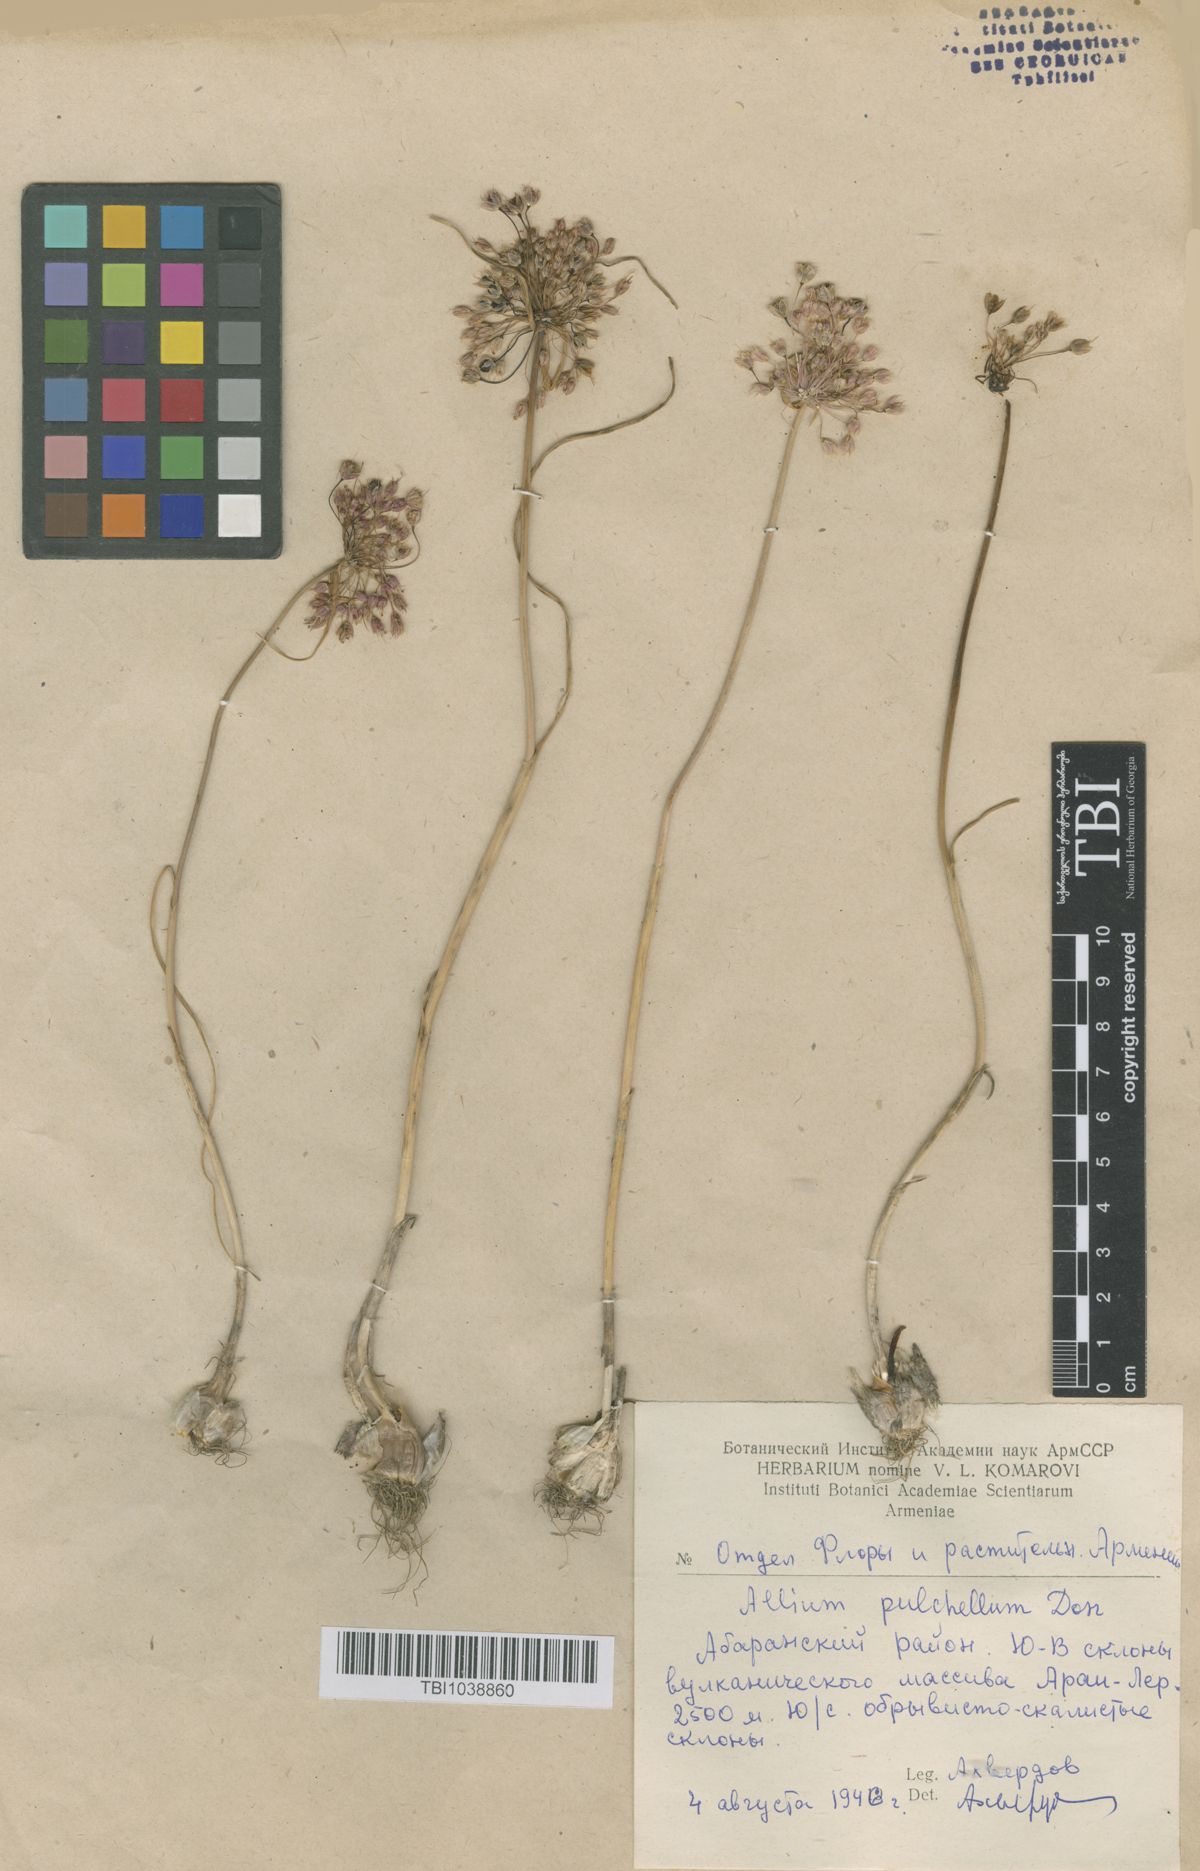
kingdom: Plantae
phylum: Tracheophyta
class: Liliopsida
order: Asparagales
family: Amaryllidaceae
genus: Allium
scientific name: Allium flavum
